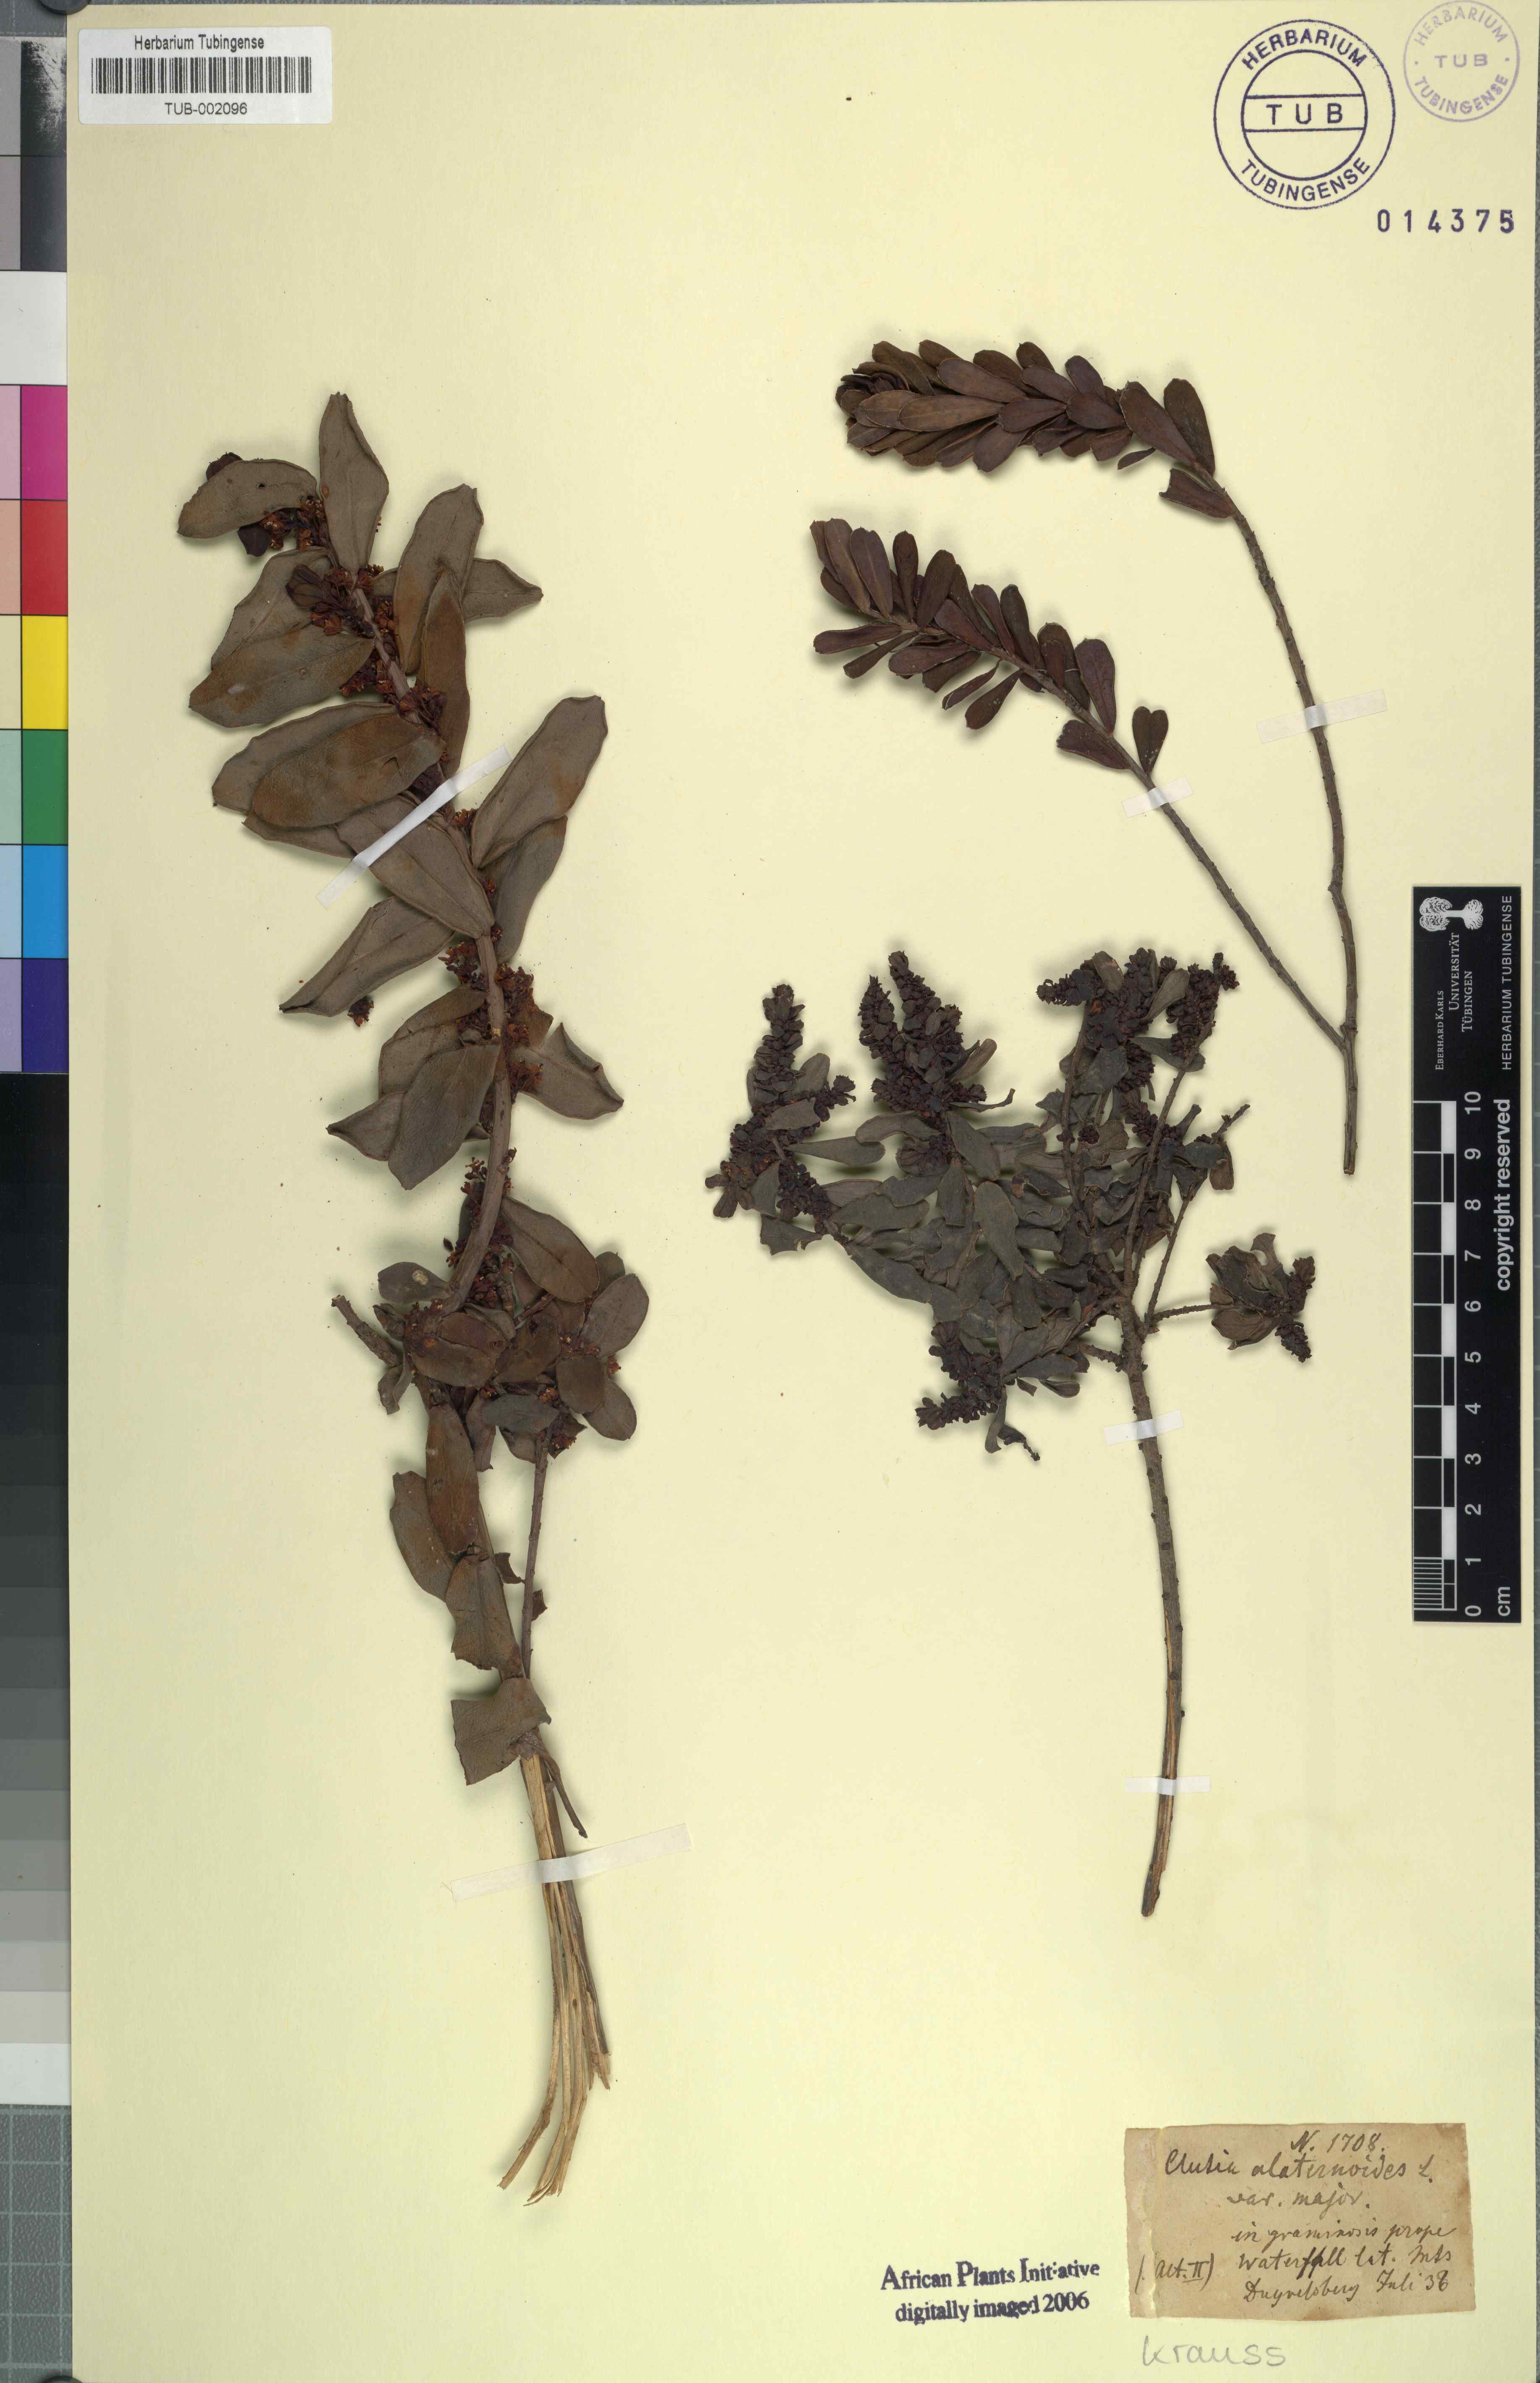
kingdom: Plantae
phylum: Tracheophyta
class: Magnoliopsida
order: Malpighiales
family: Peraceae
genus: Clutia
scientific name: Clutia alaternoides
